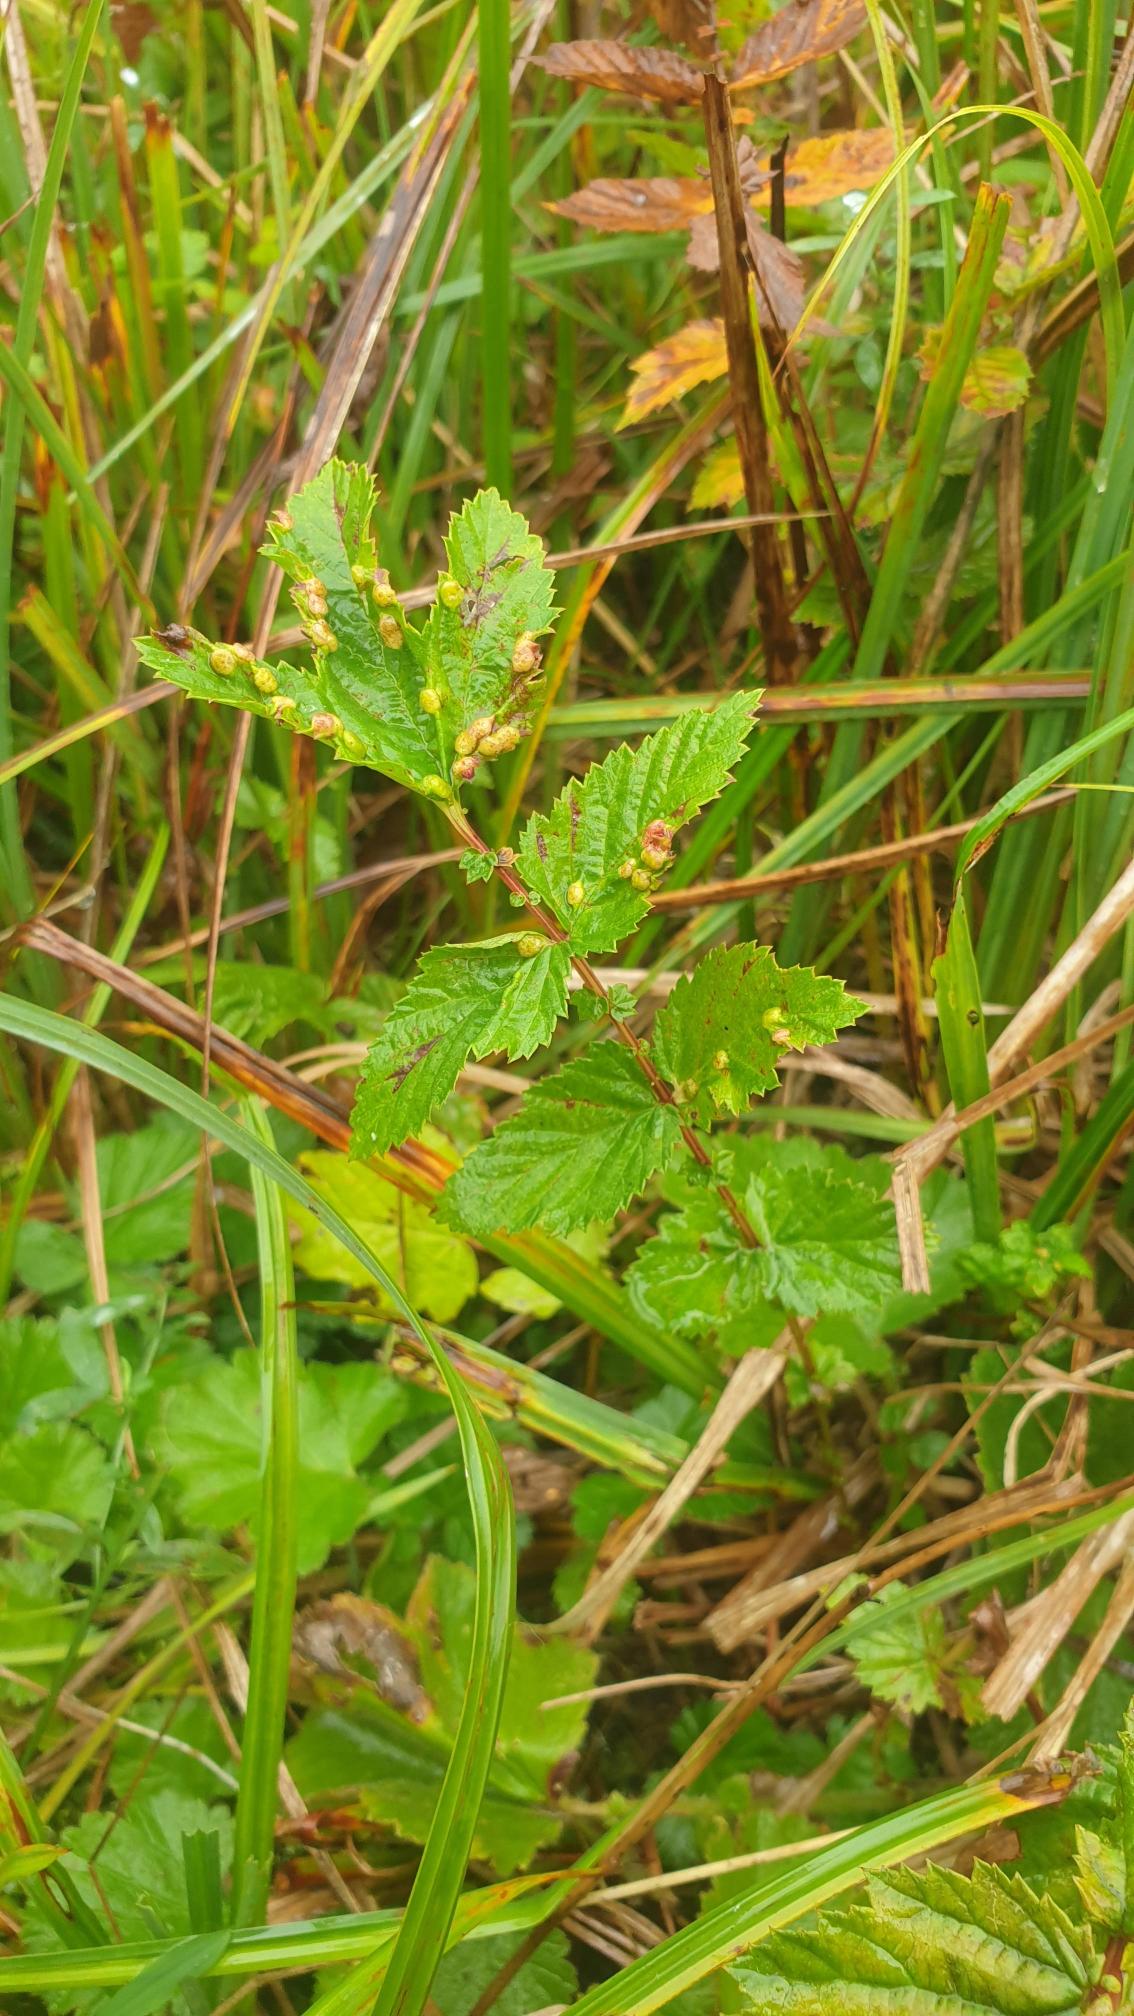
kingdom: Animalia
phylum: Arthropoda
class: Insecta
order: Diptera
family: Cecidomyiidae
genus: Dasineura
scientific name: Dasineura ulmaria
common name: Mjødurtgalmyg
